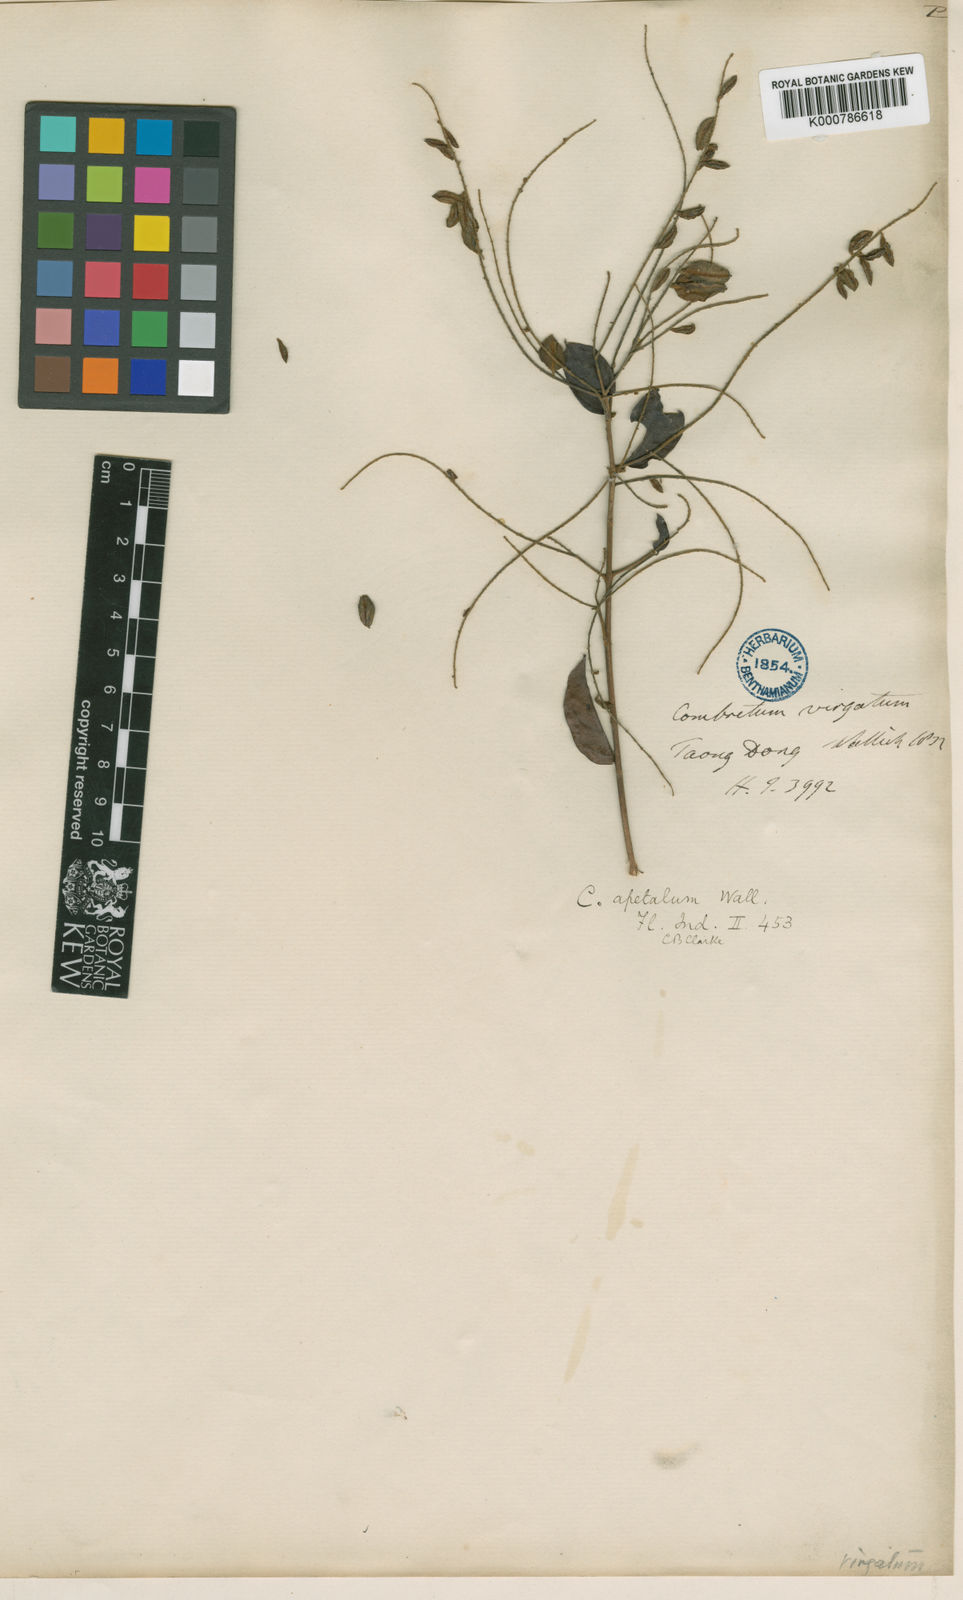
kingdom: Plantae
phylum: Tracheophyta
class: Magnoliopsida
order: Myrtales
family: Combretaceae
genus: Combretum
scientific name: Combretum
